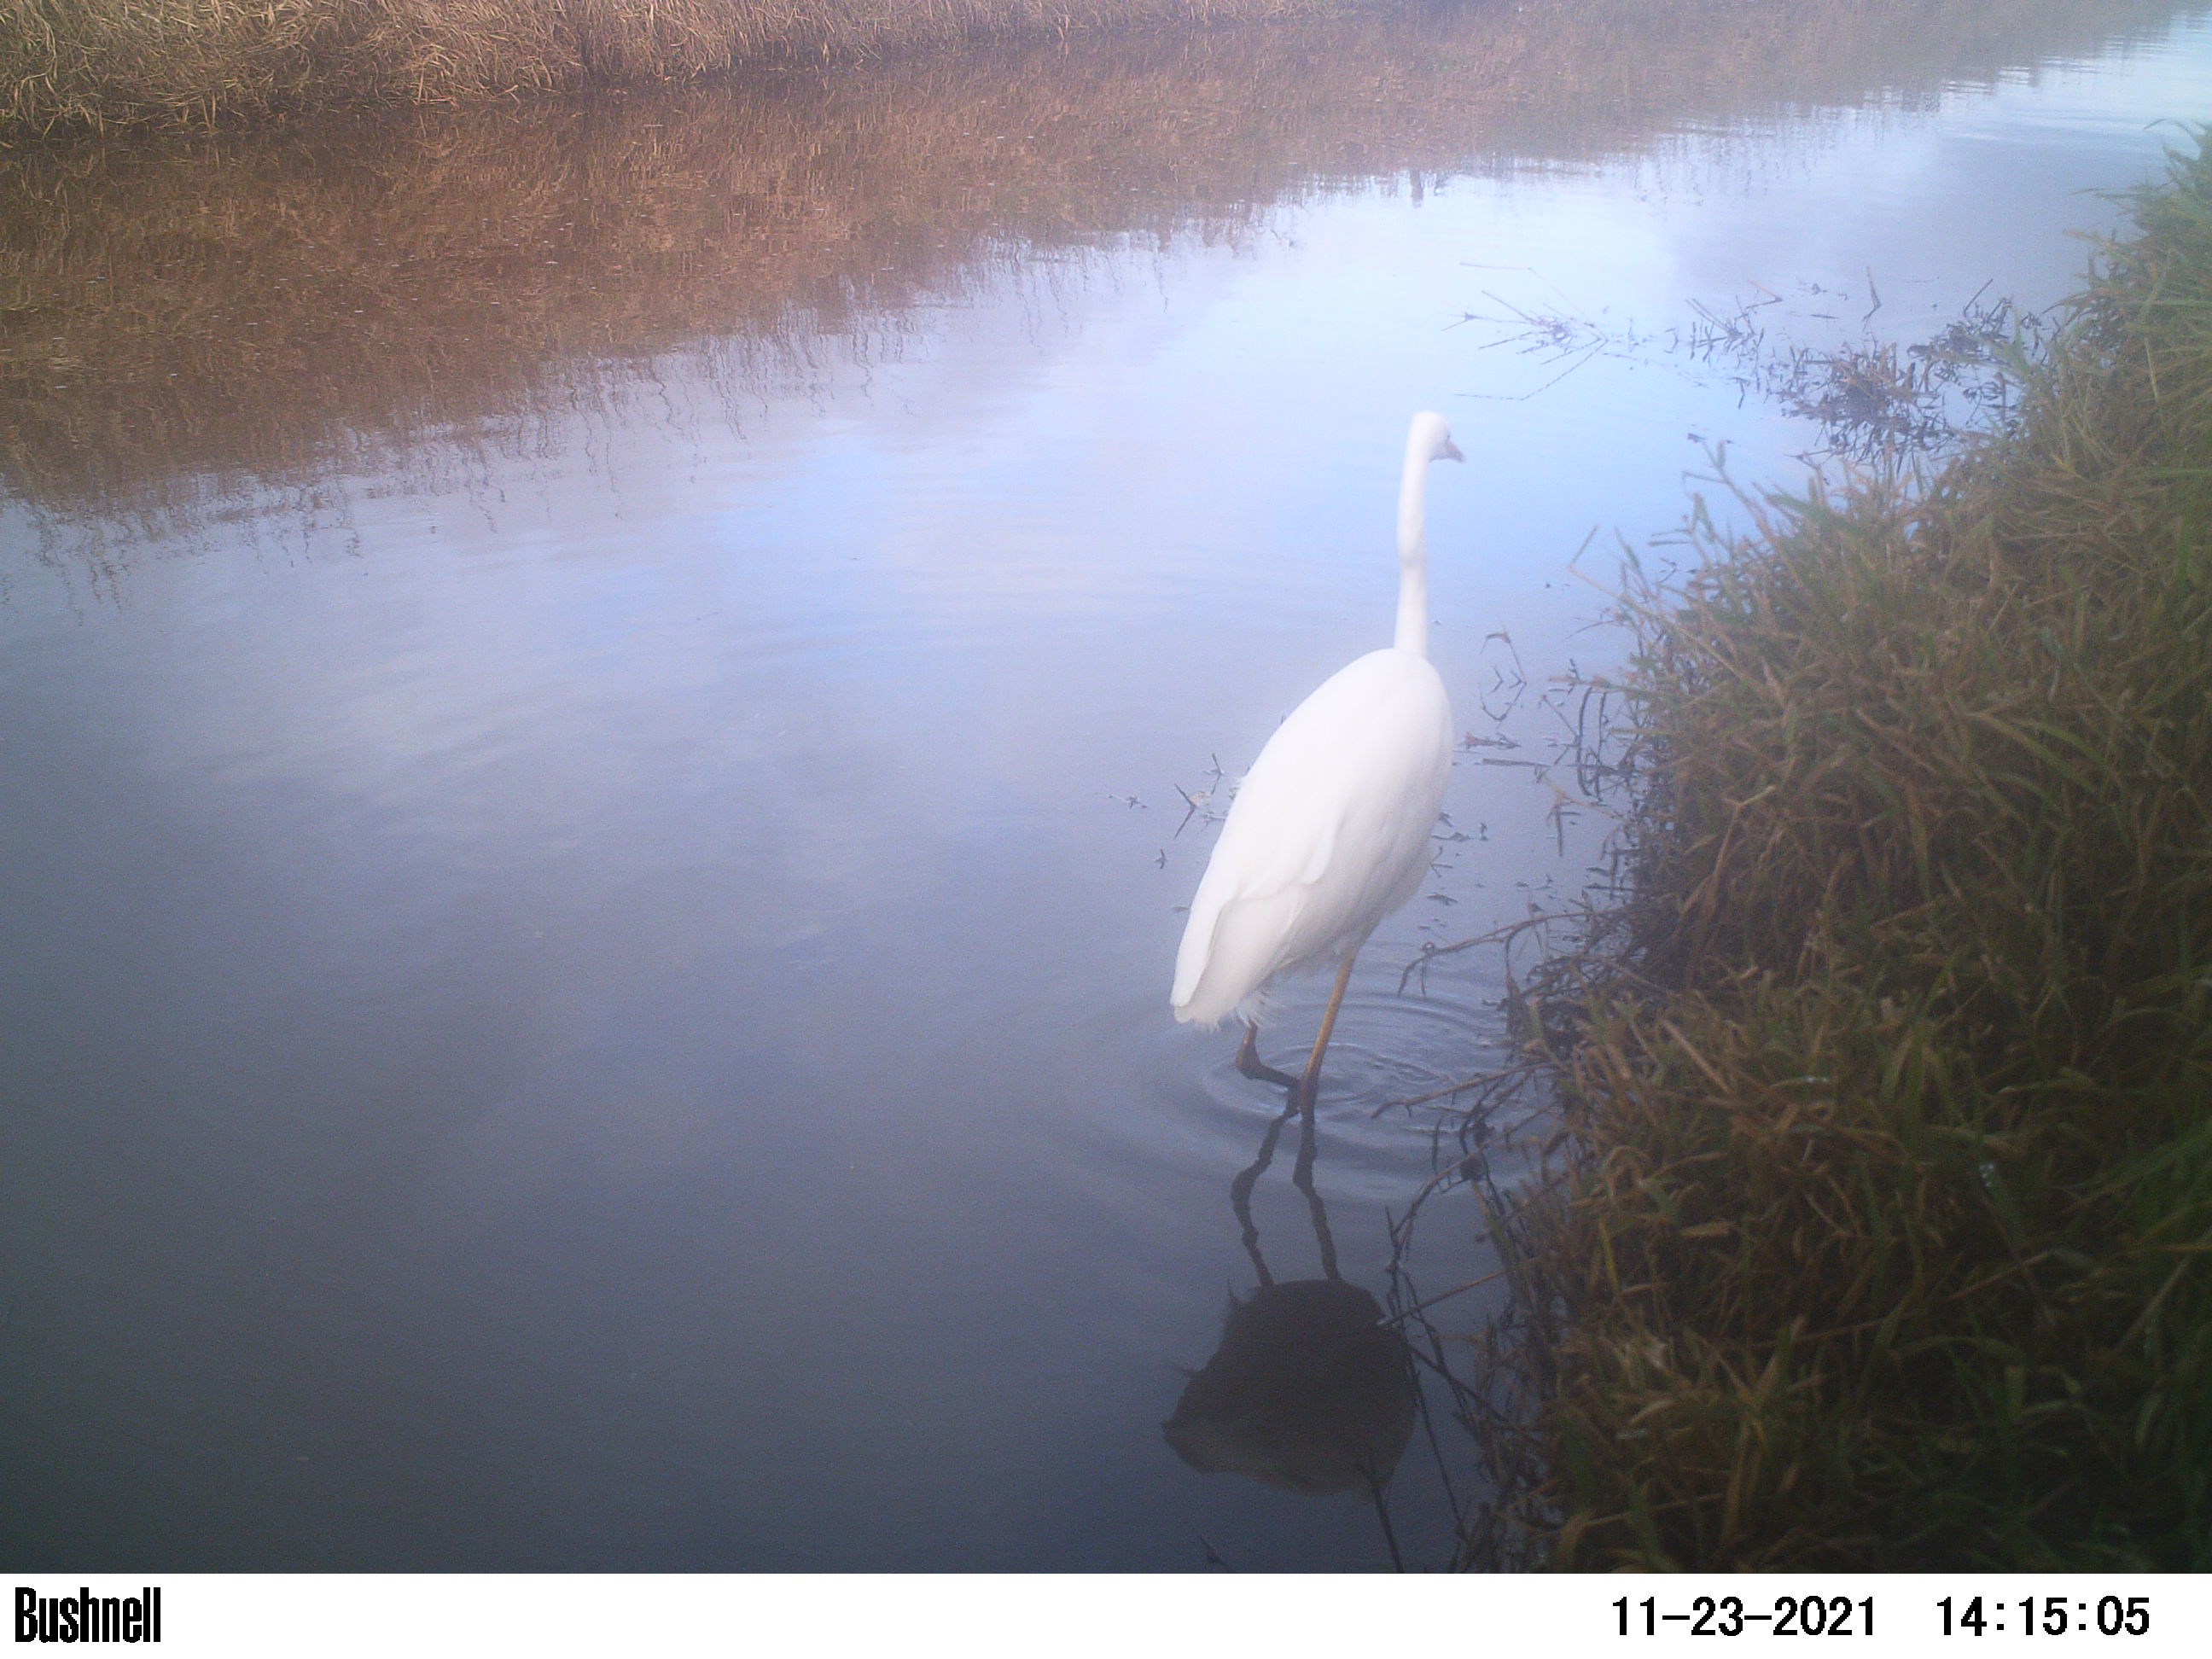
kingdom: Animalia
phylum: Chordata
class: Aves
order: Pelecaniformes
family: Ardeidae
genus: Ardea
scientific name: Ardea alba
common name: Great egret
